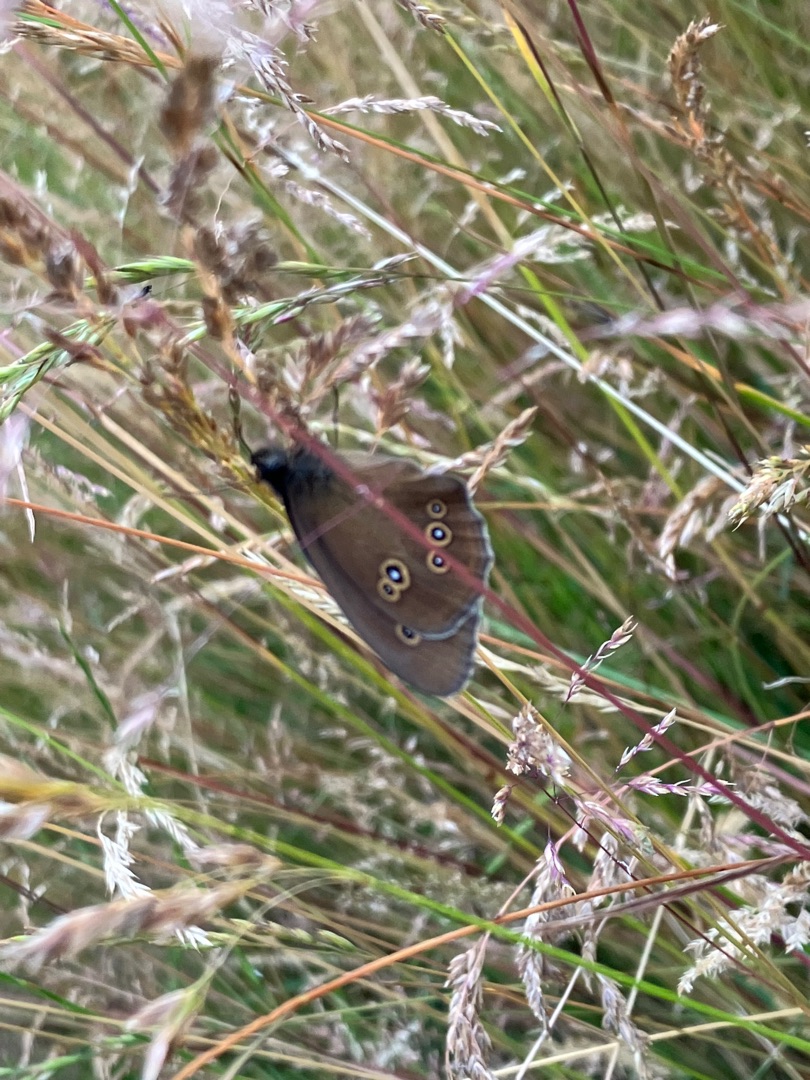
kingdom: Animalia
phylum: Arthropoda
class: Insecta
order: Lepidoptera
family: Nymphalidae
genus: Aphantopus
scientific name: Aphantopus hyperantus
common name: Engrandøje
